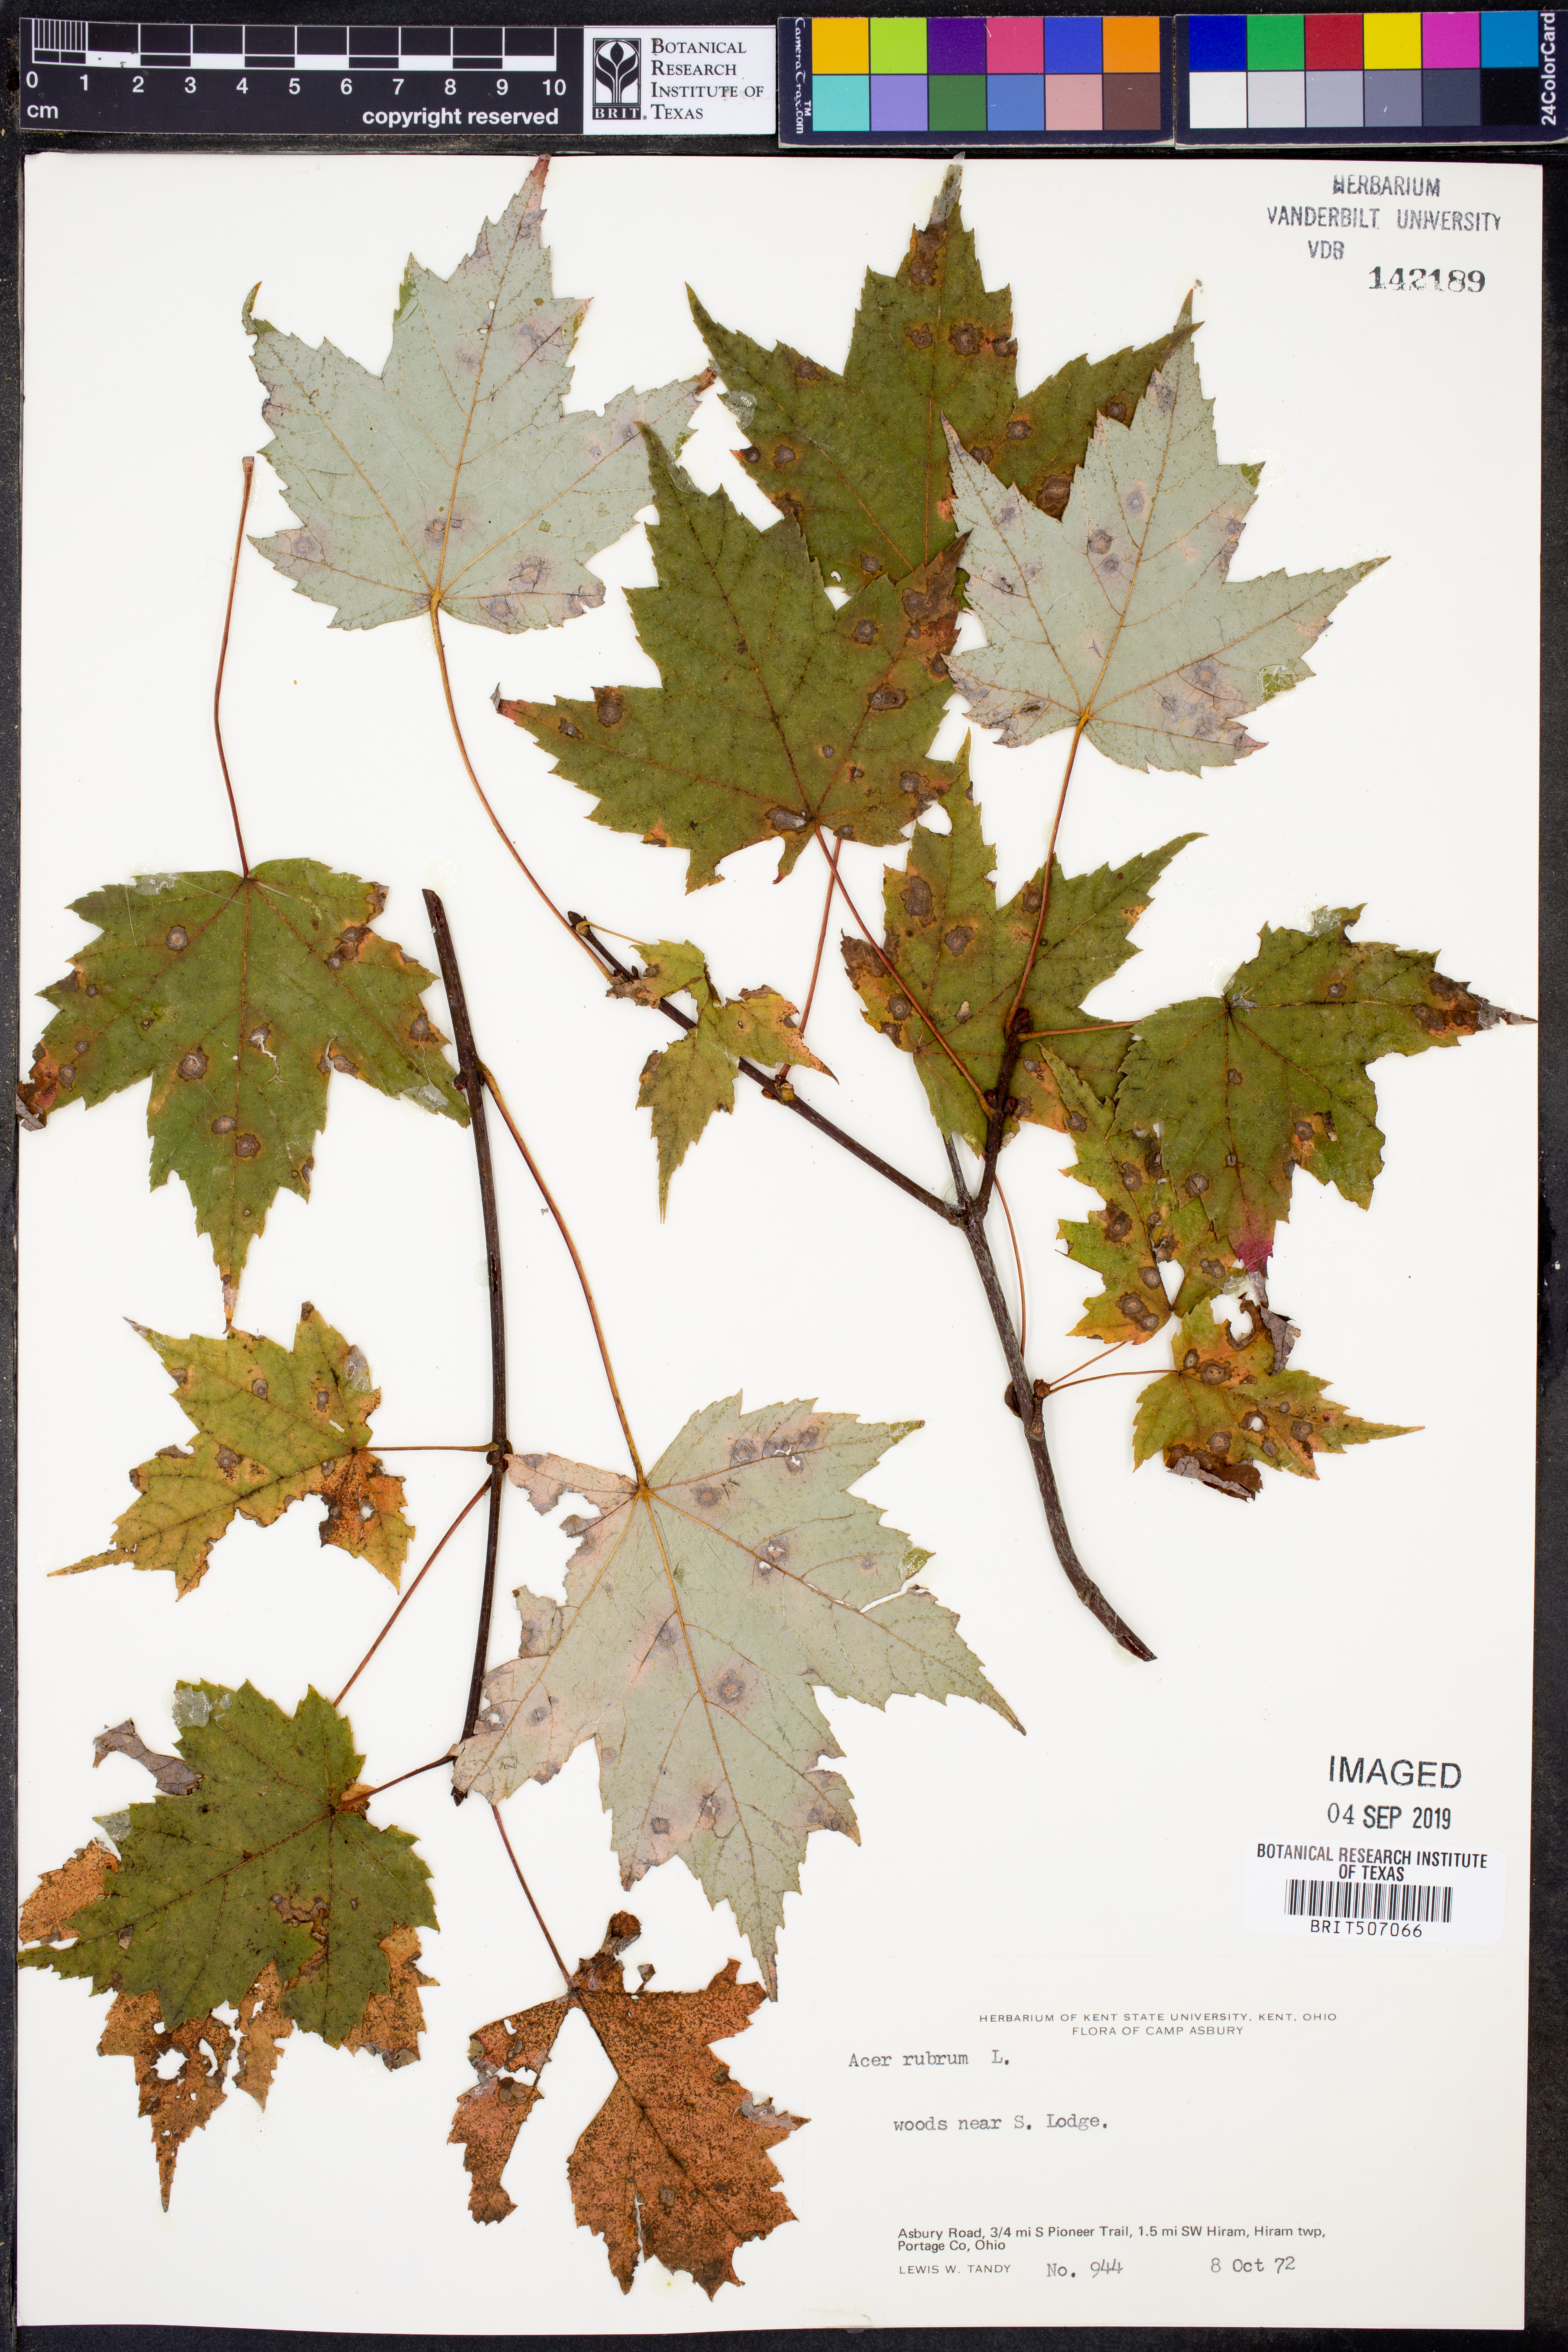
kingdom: Plantae
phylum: Tracheophyta
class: Magnoliopsida
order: Sapindales
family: Sapindaceae
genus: Acer
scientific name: Acer rubrum
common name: Red maple
